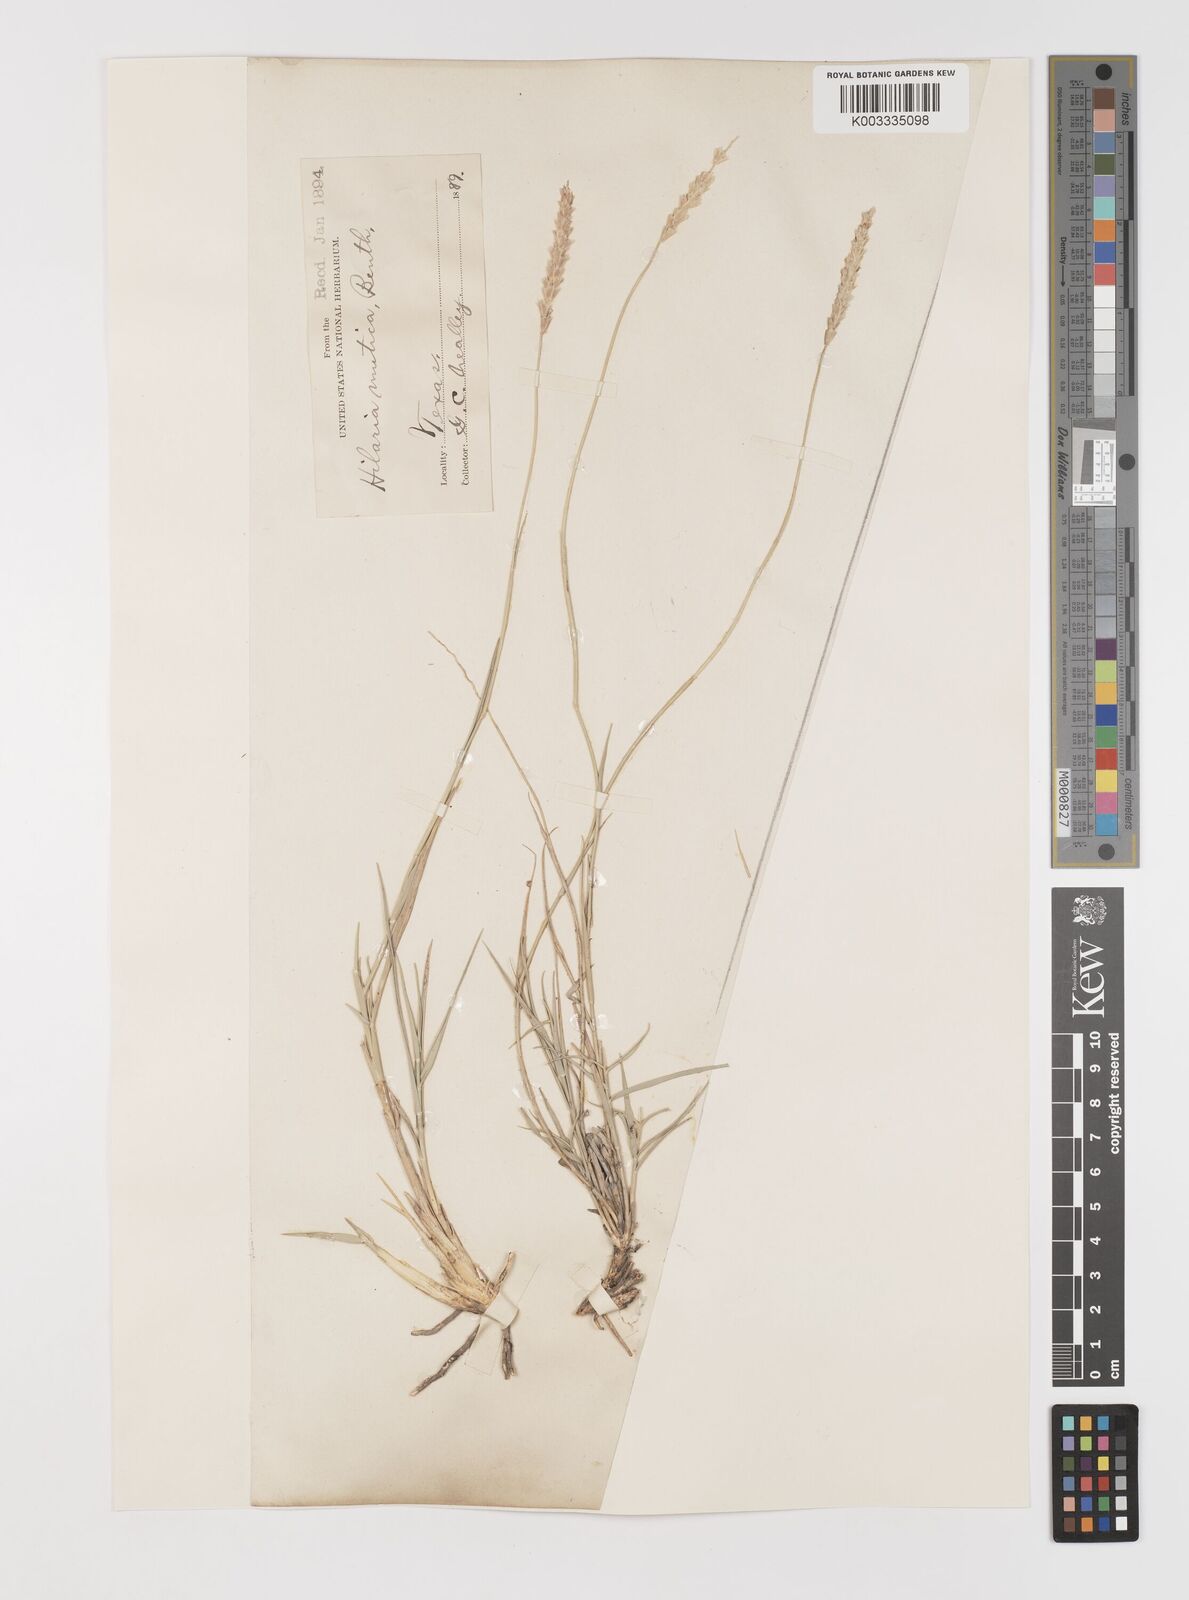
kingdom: Plantae
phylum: Tracheophyta
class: Liliopsida
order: Poales
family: Poaceae
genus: Hilaria
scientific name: Hilaria mutica
